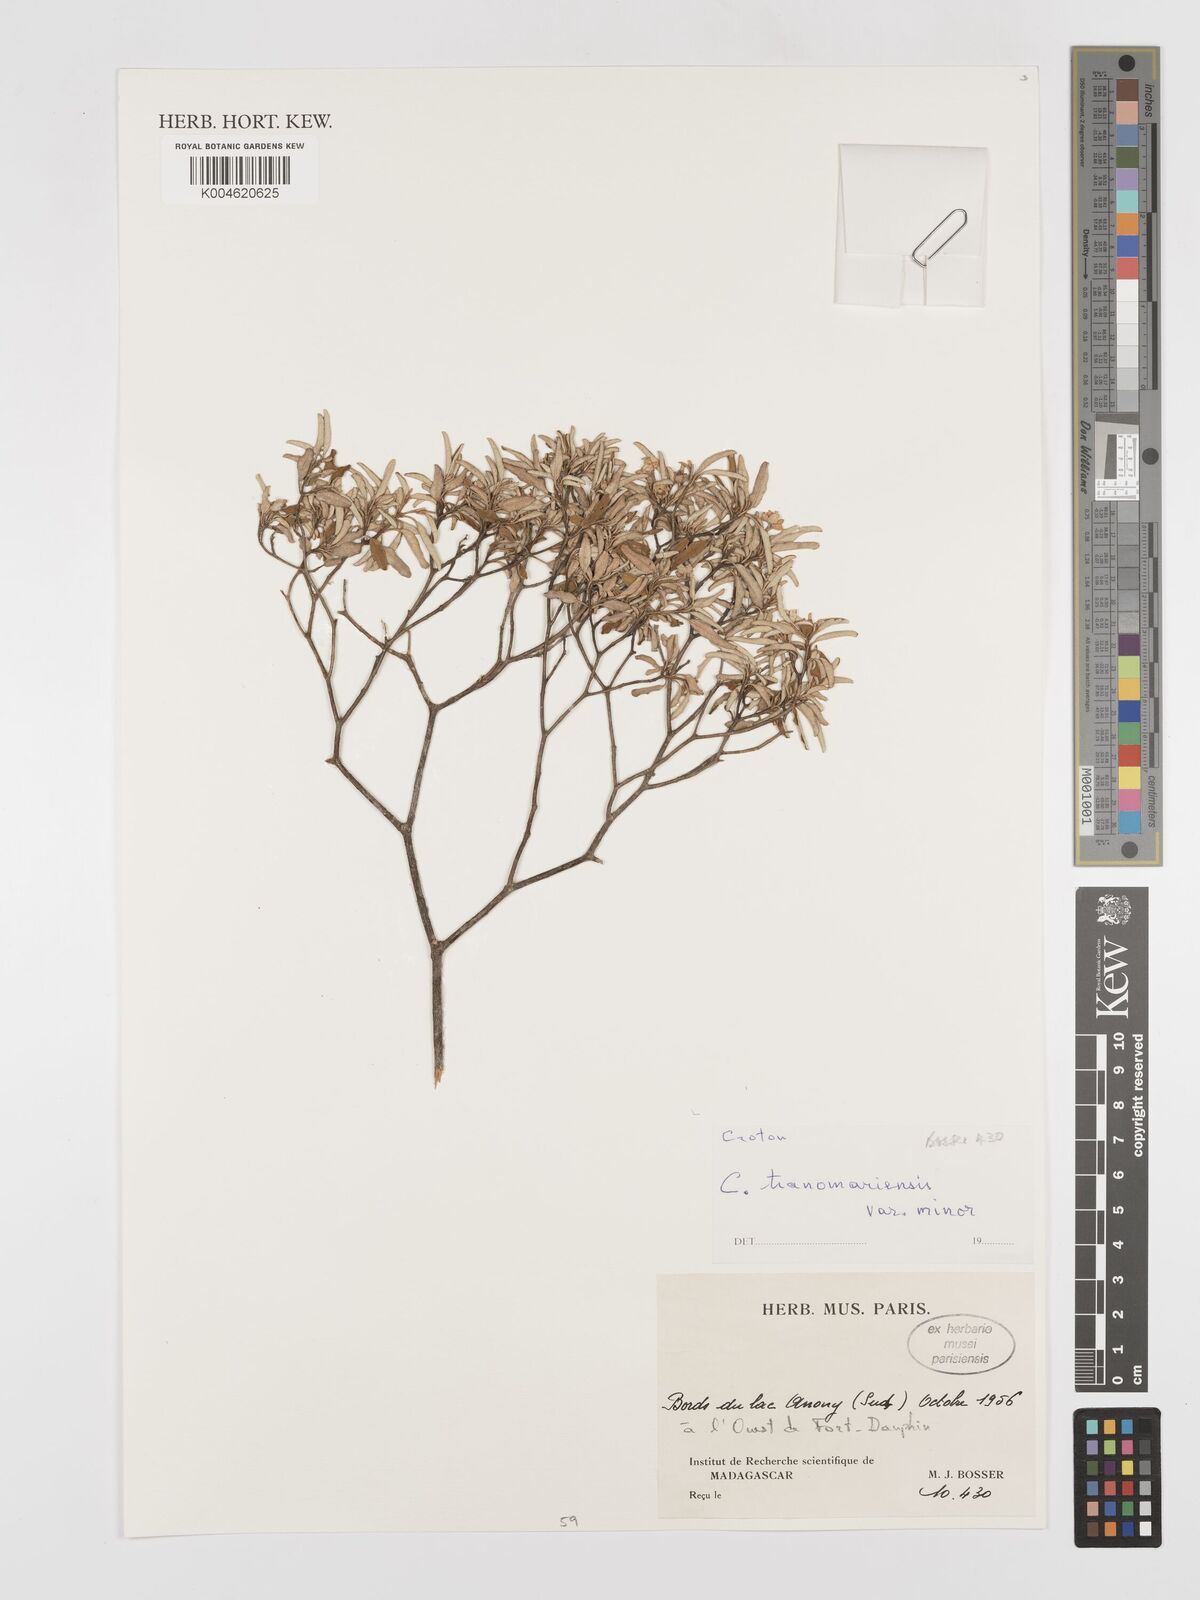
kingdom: Plantae
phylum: Tracheophyta
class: Magnoliopsida
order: Malpighiales
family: Euphorbiaceae
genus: Croton
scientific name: Croton meridionalis
